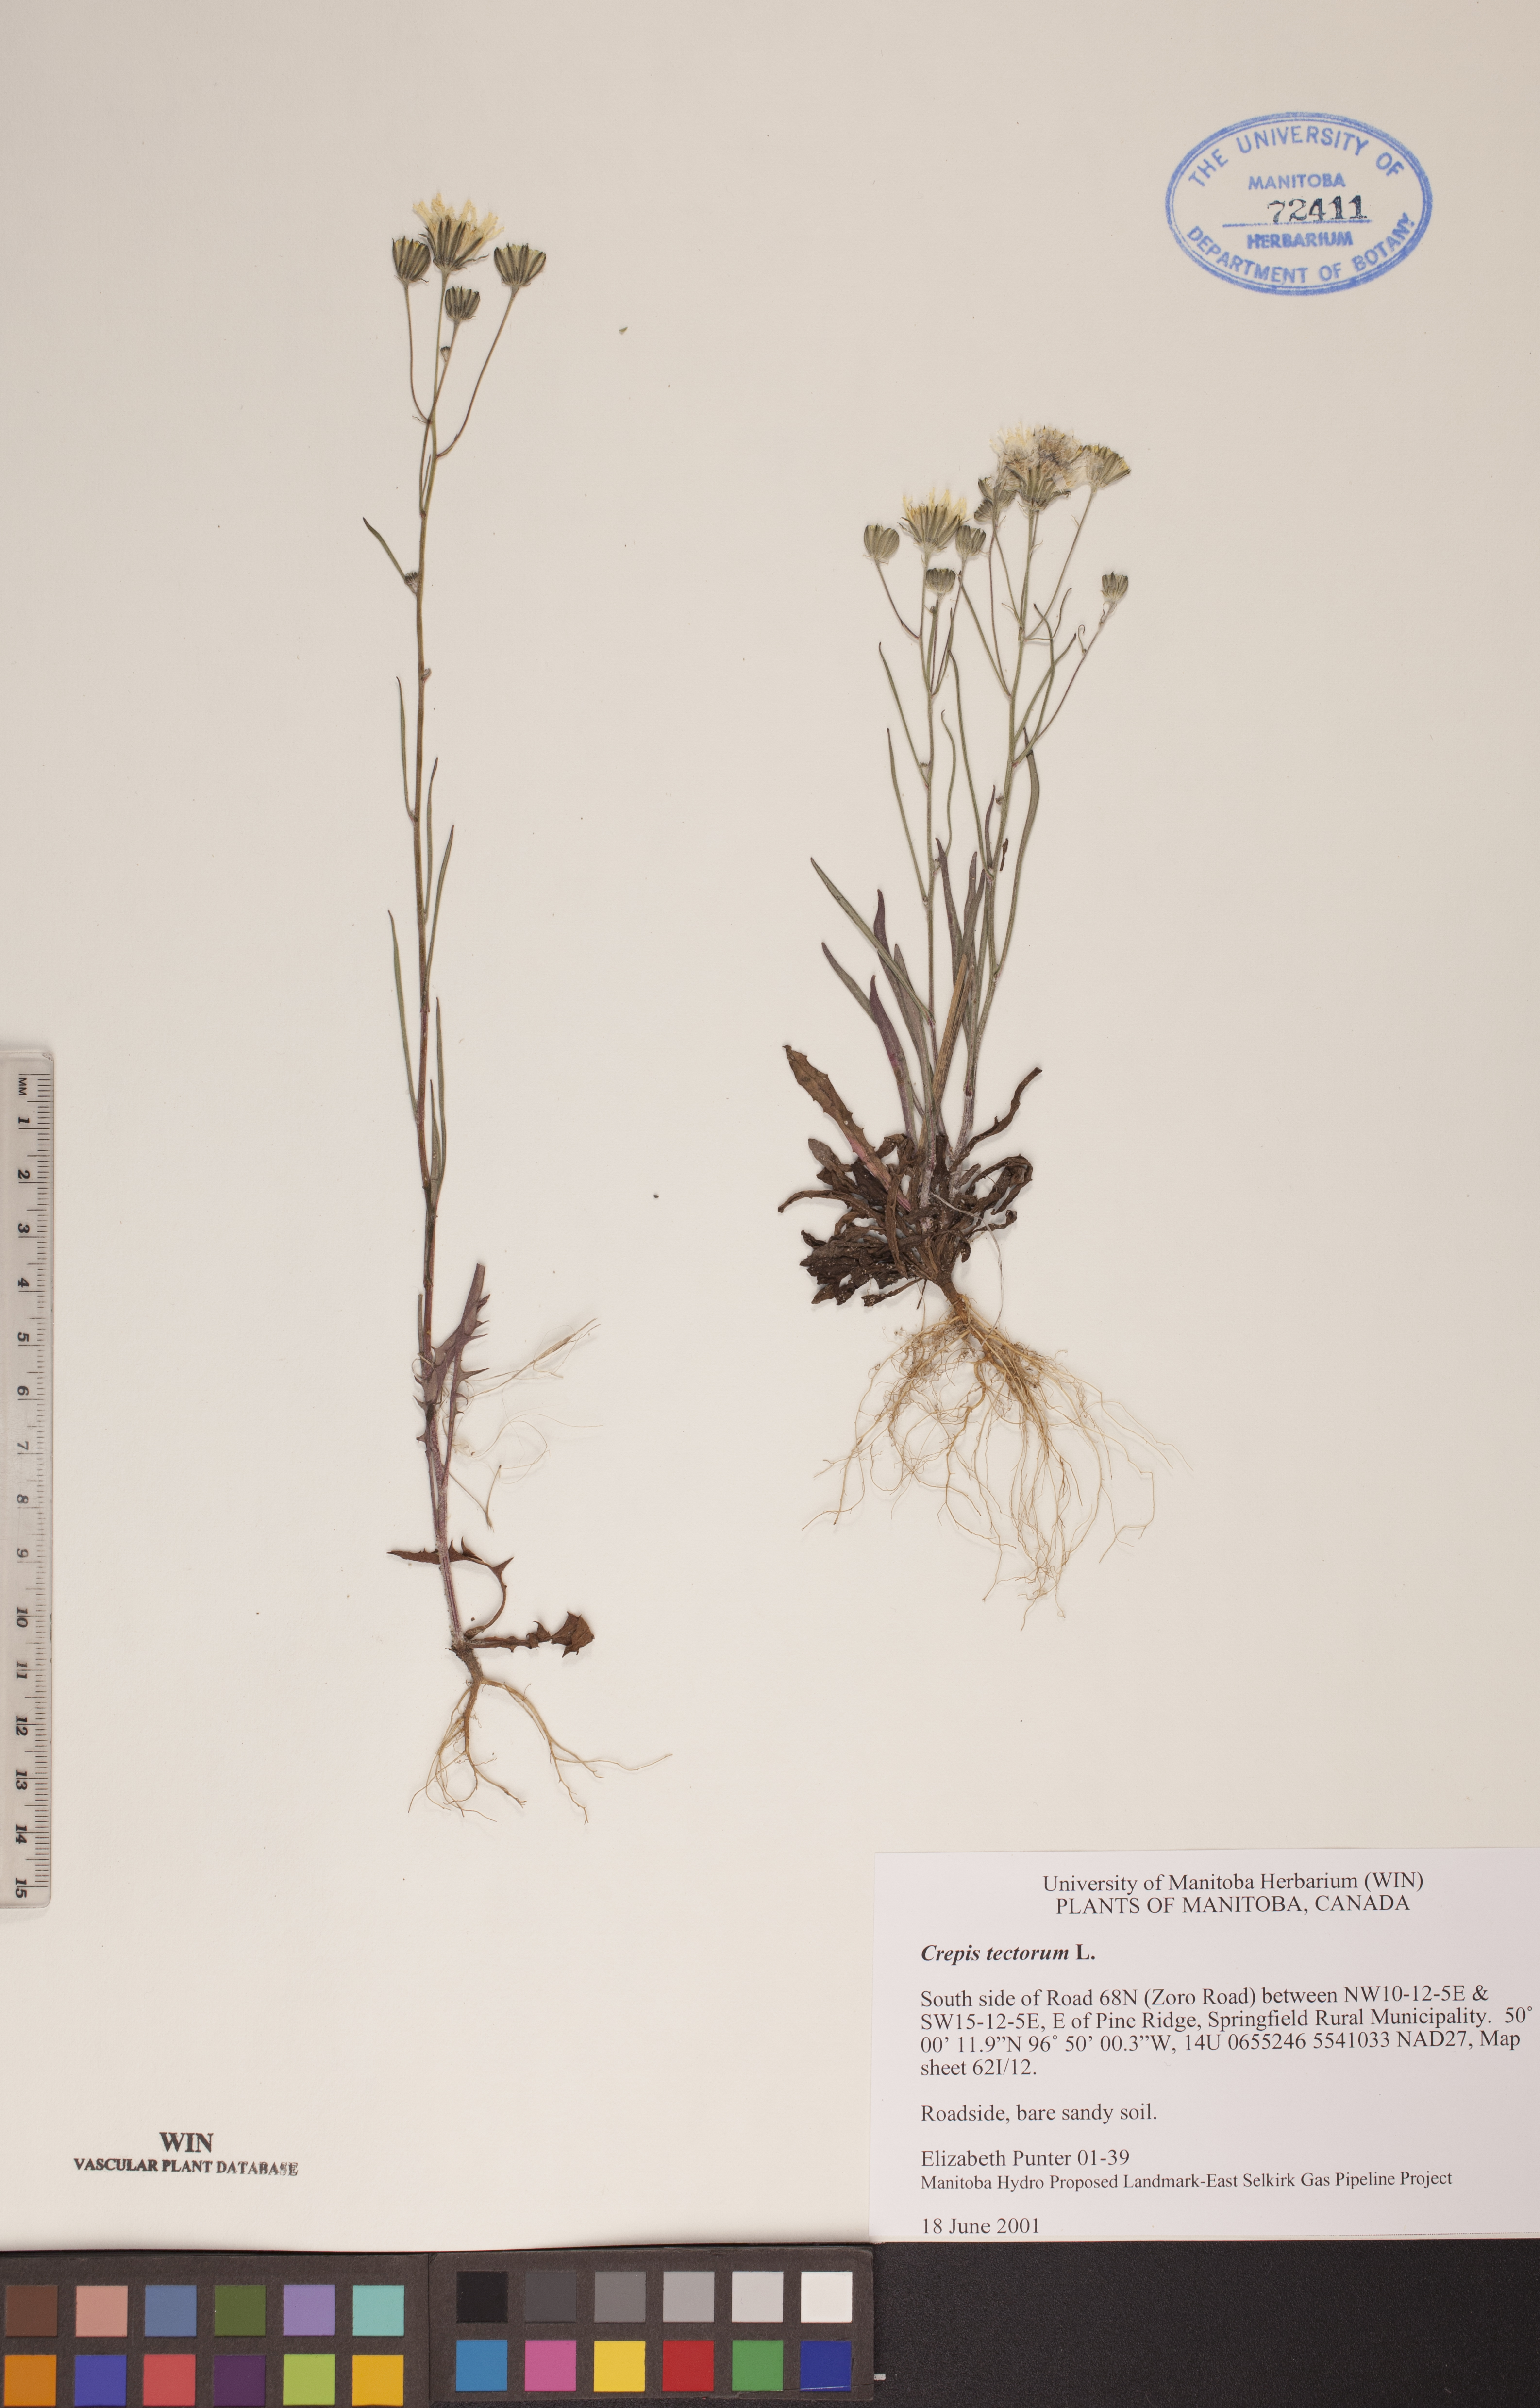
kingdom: Plantae
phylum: Tracheophyta
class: Magnoliopsida
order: Asterales
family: Asteraceae
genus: Crepis
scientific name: Crepis tectorum
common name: Narrow-leaved hawk's-beard
